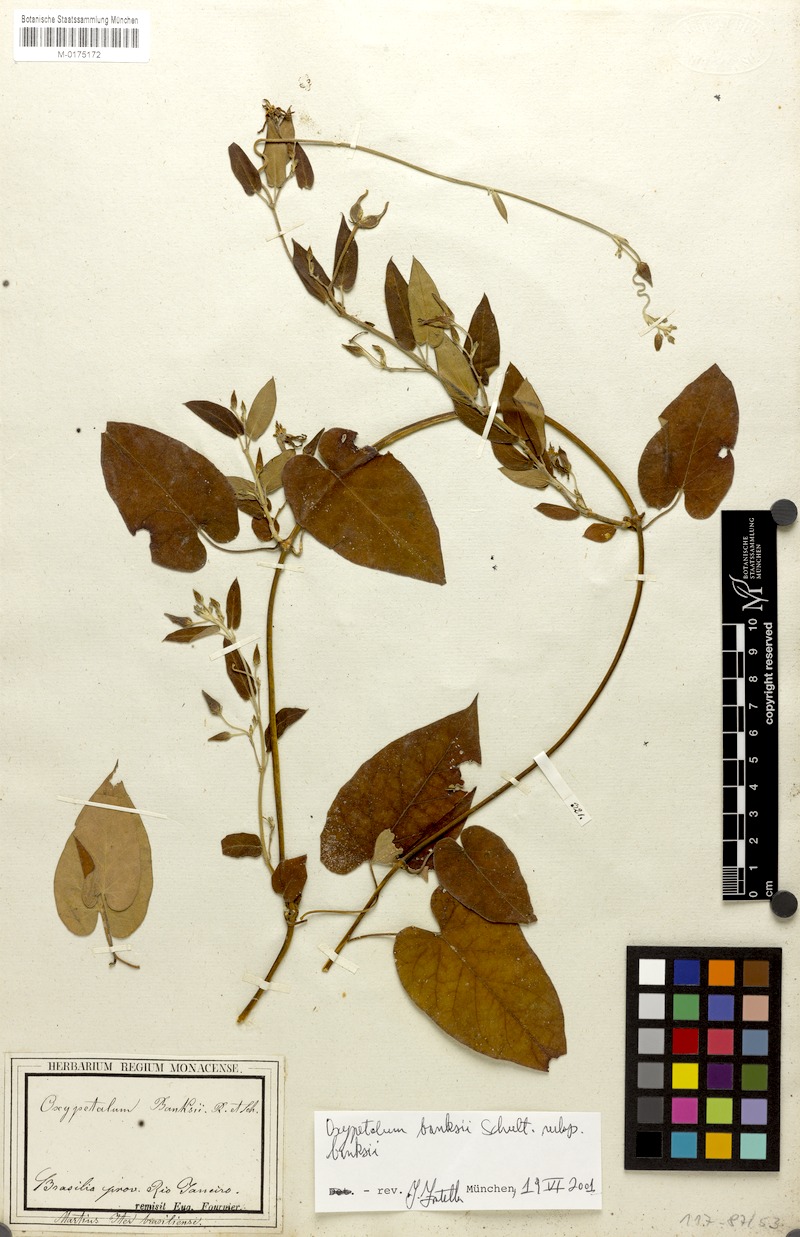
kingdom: Plantae
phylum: Tracheophyta
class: Magnoliopsida
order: Gentianales
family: Apocynaceae
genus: Oxypetalum
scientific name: Oxypetalum banksii
